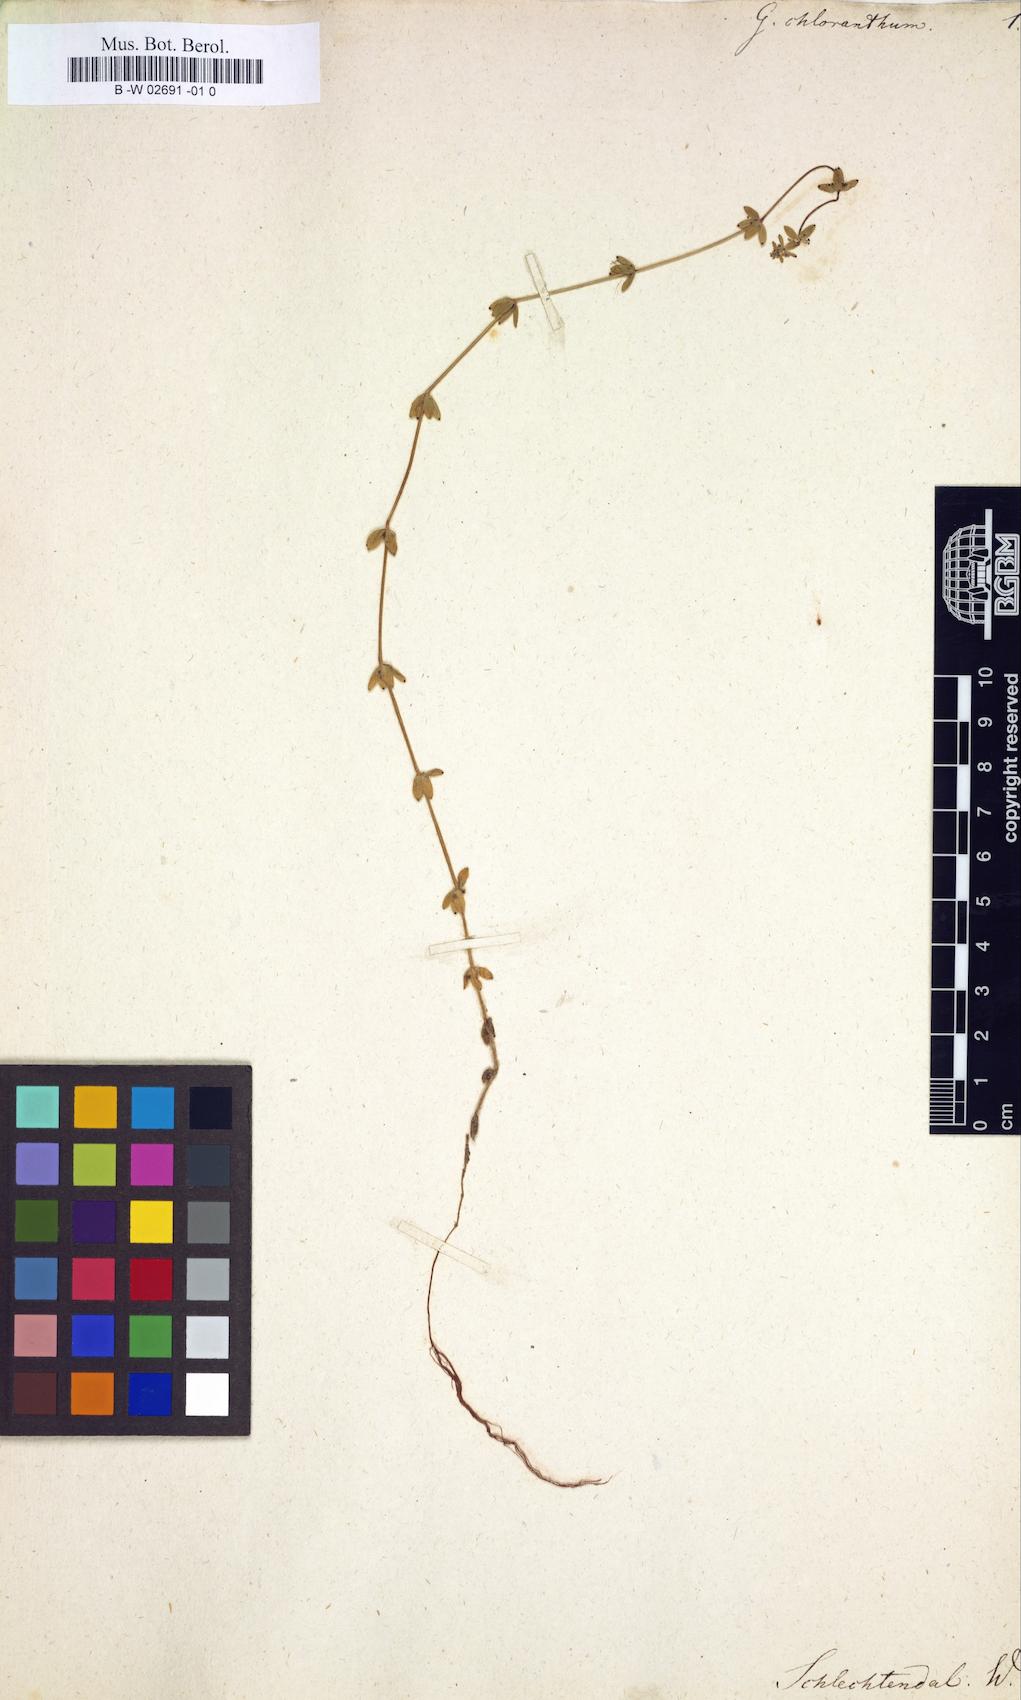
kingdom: Plantae
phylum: Tracheophyta
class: Magnoliopsida
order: Gentianales
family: Rubiaceae
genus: Galium
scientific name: Galium hypocarpium
